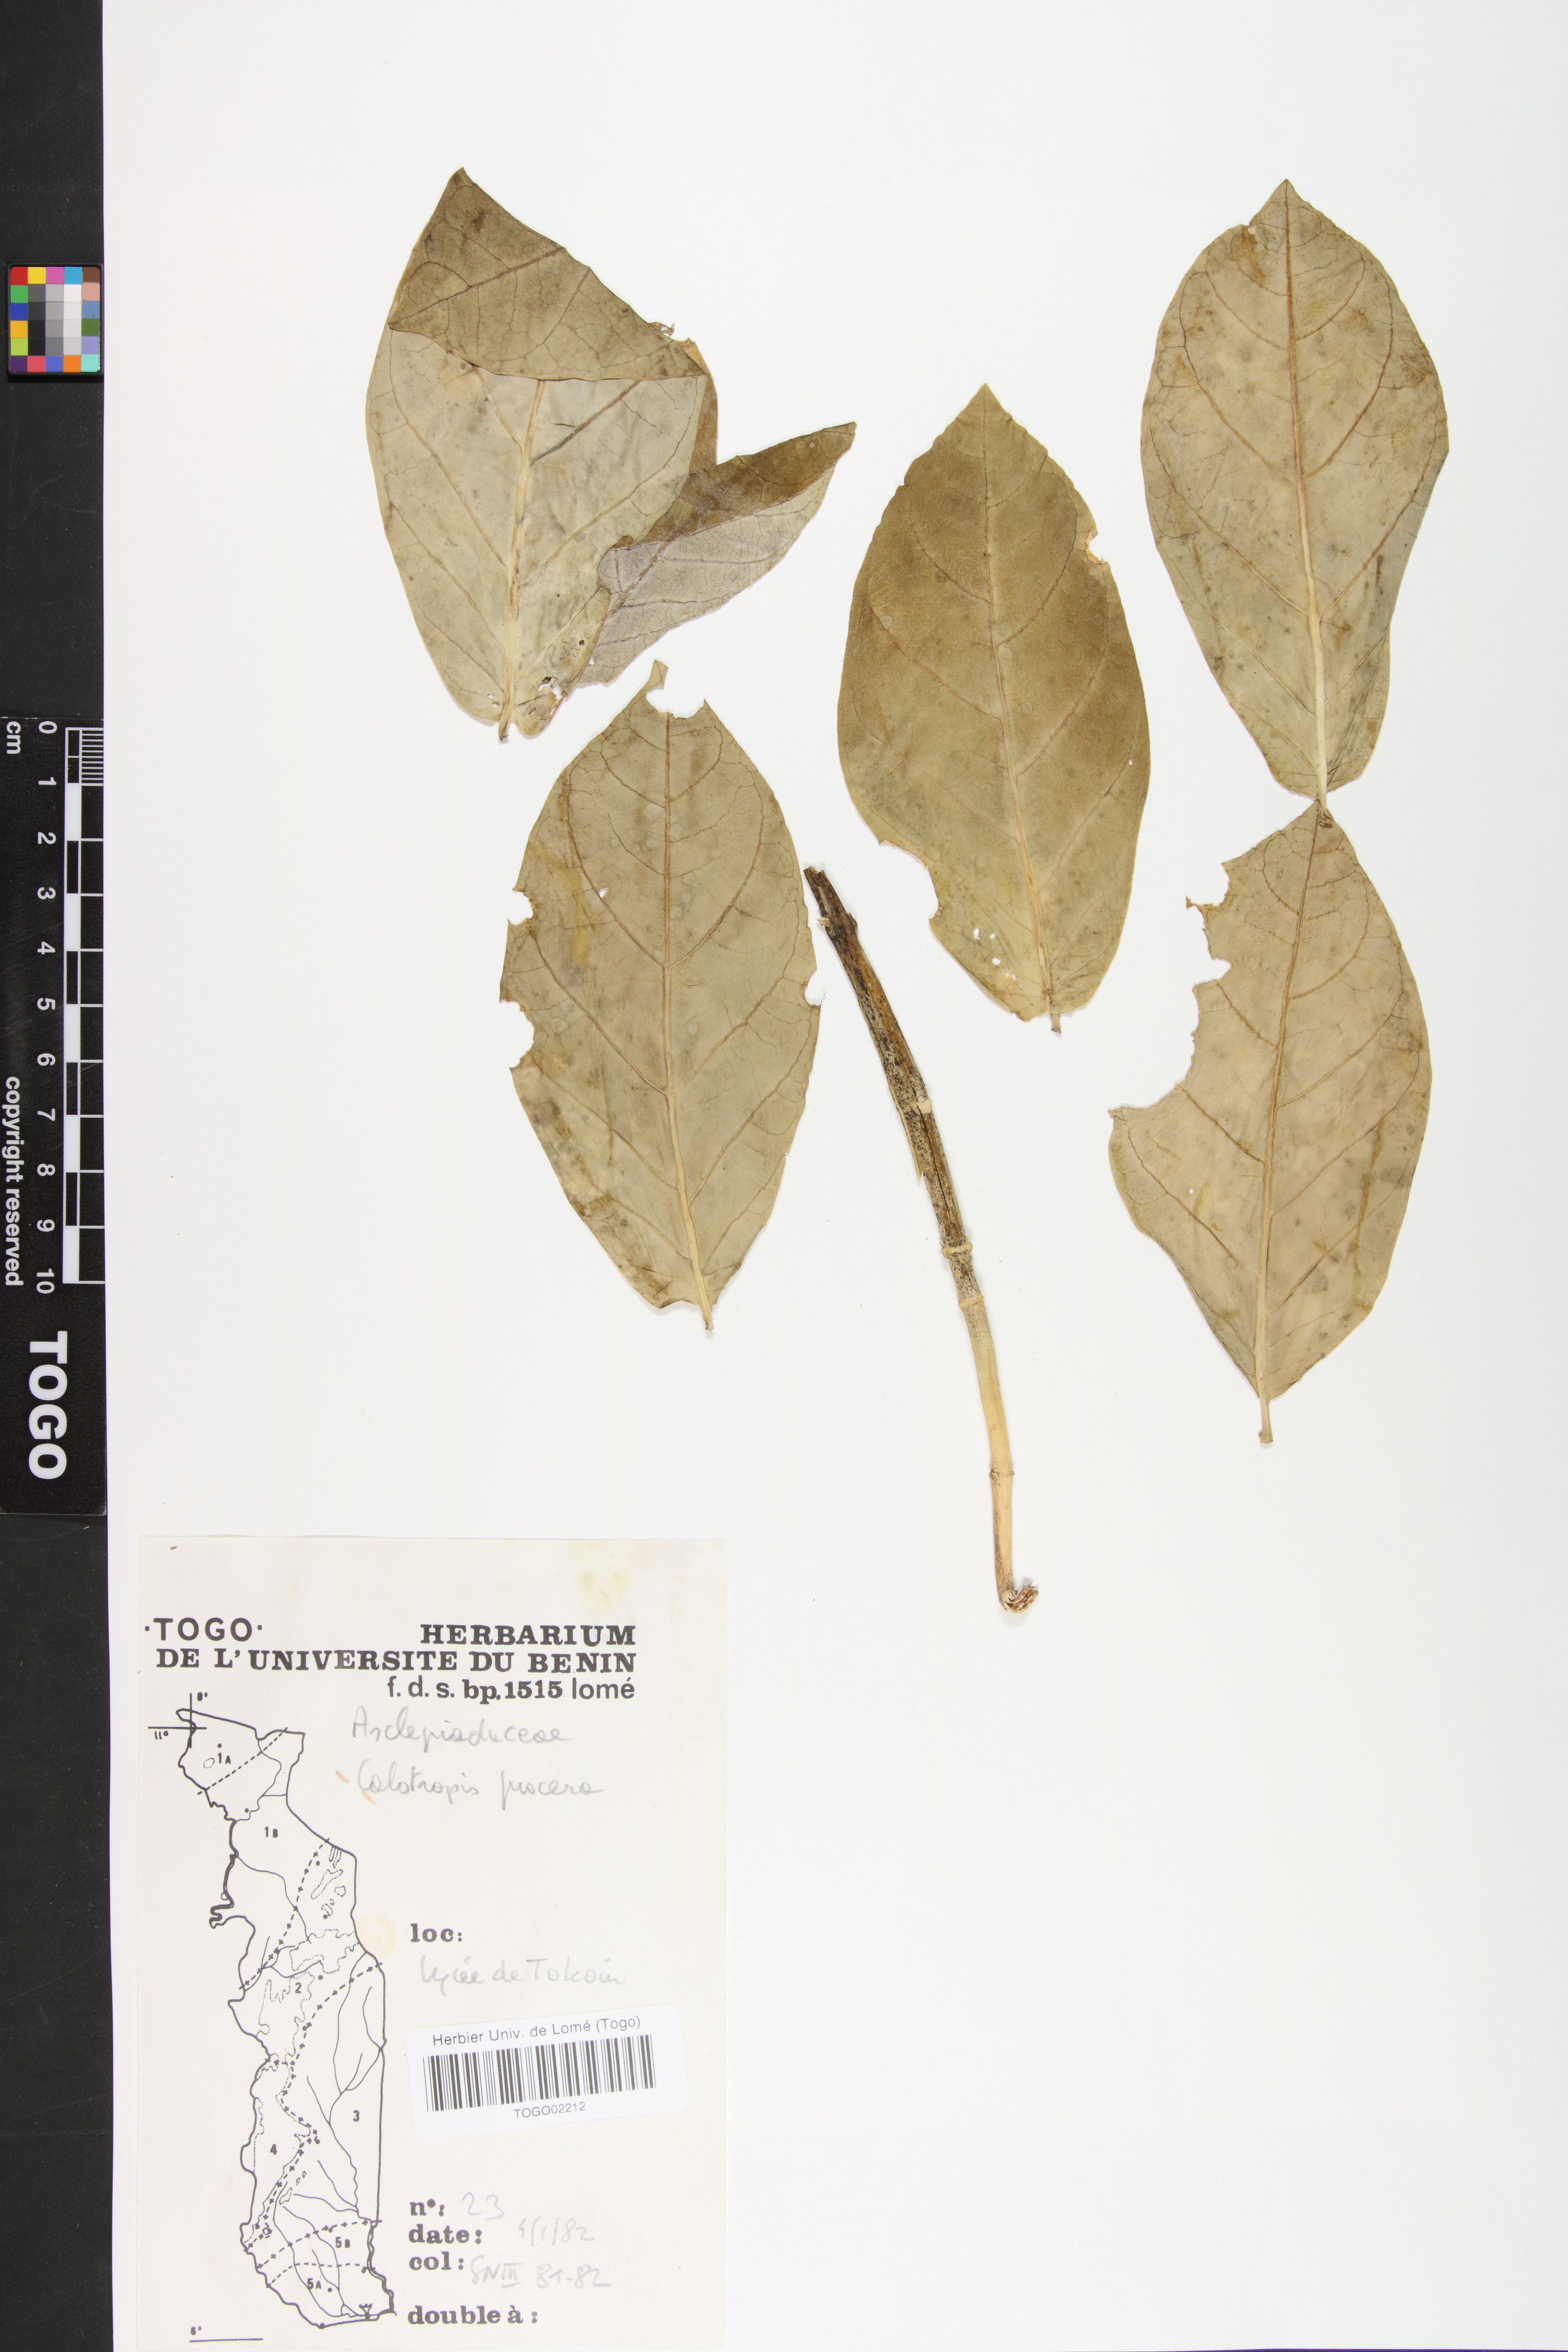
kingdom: Plantae
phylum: Tracheophyta
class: Magnoliopsida
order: Gentianales
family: Apocynaceae
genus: Calotropis
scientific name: Calotropis procera
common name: Roostertree
